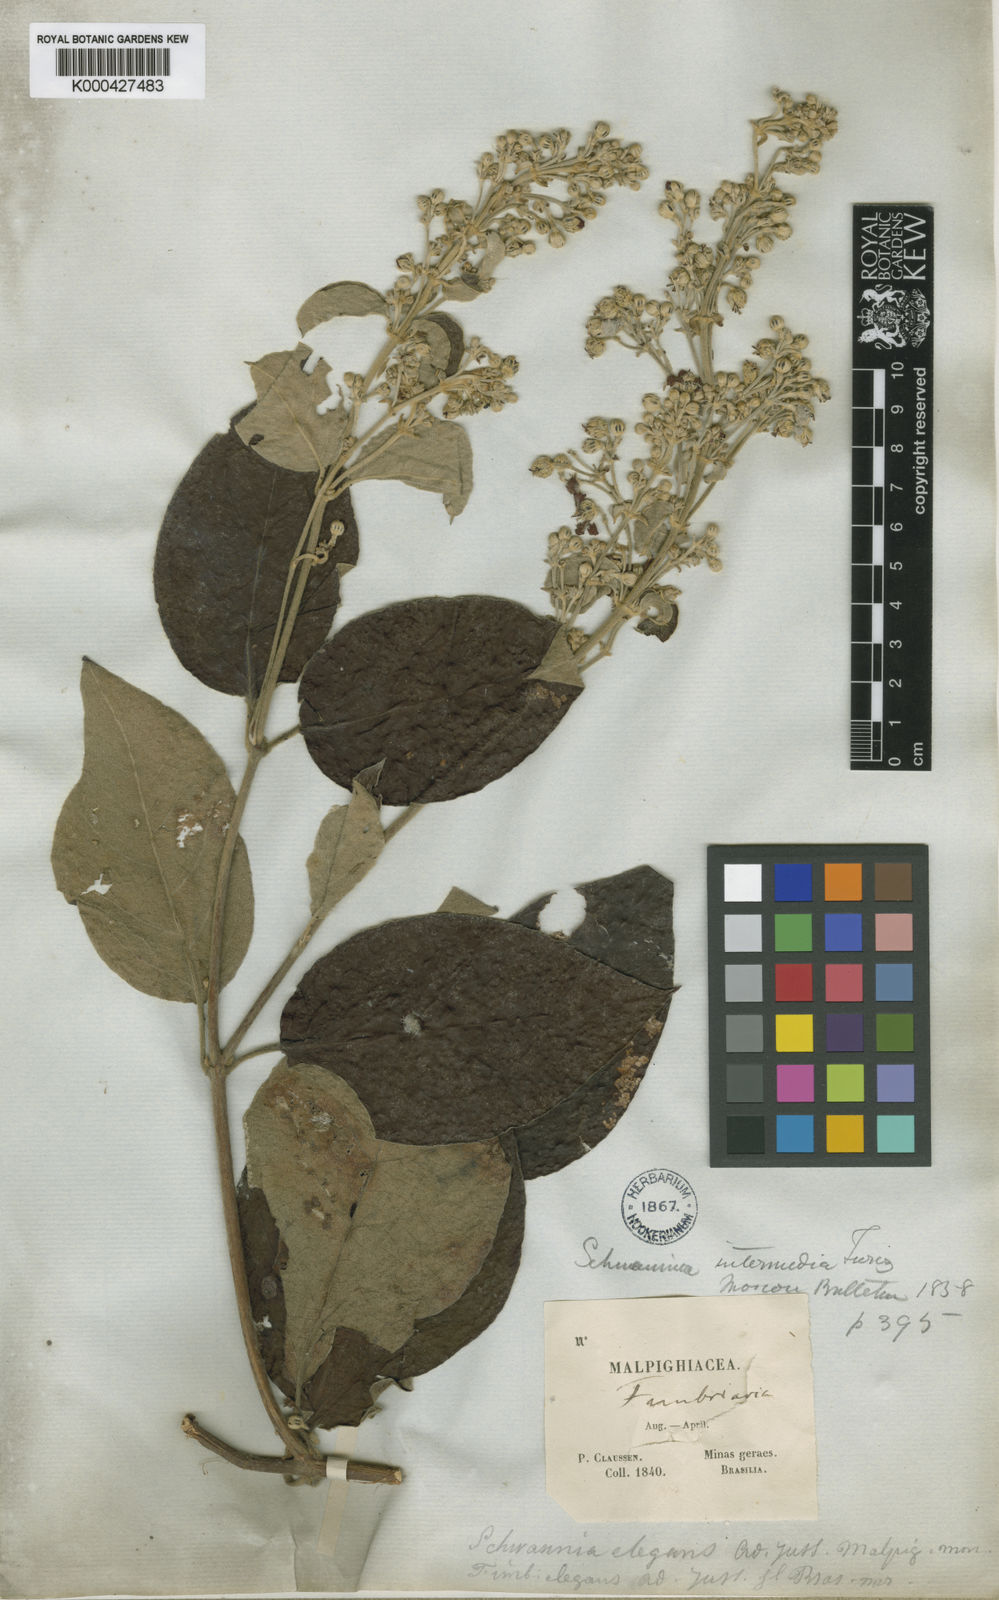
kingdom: Plantae
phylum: Tracheophyta
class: Magnoliopsida
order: Malpighiales
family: Malpighiaceae
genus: Janusia
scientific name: Janusia mediterranea
